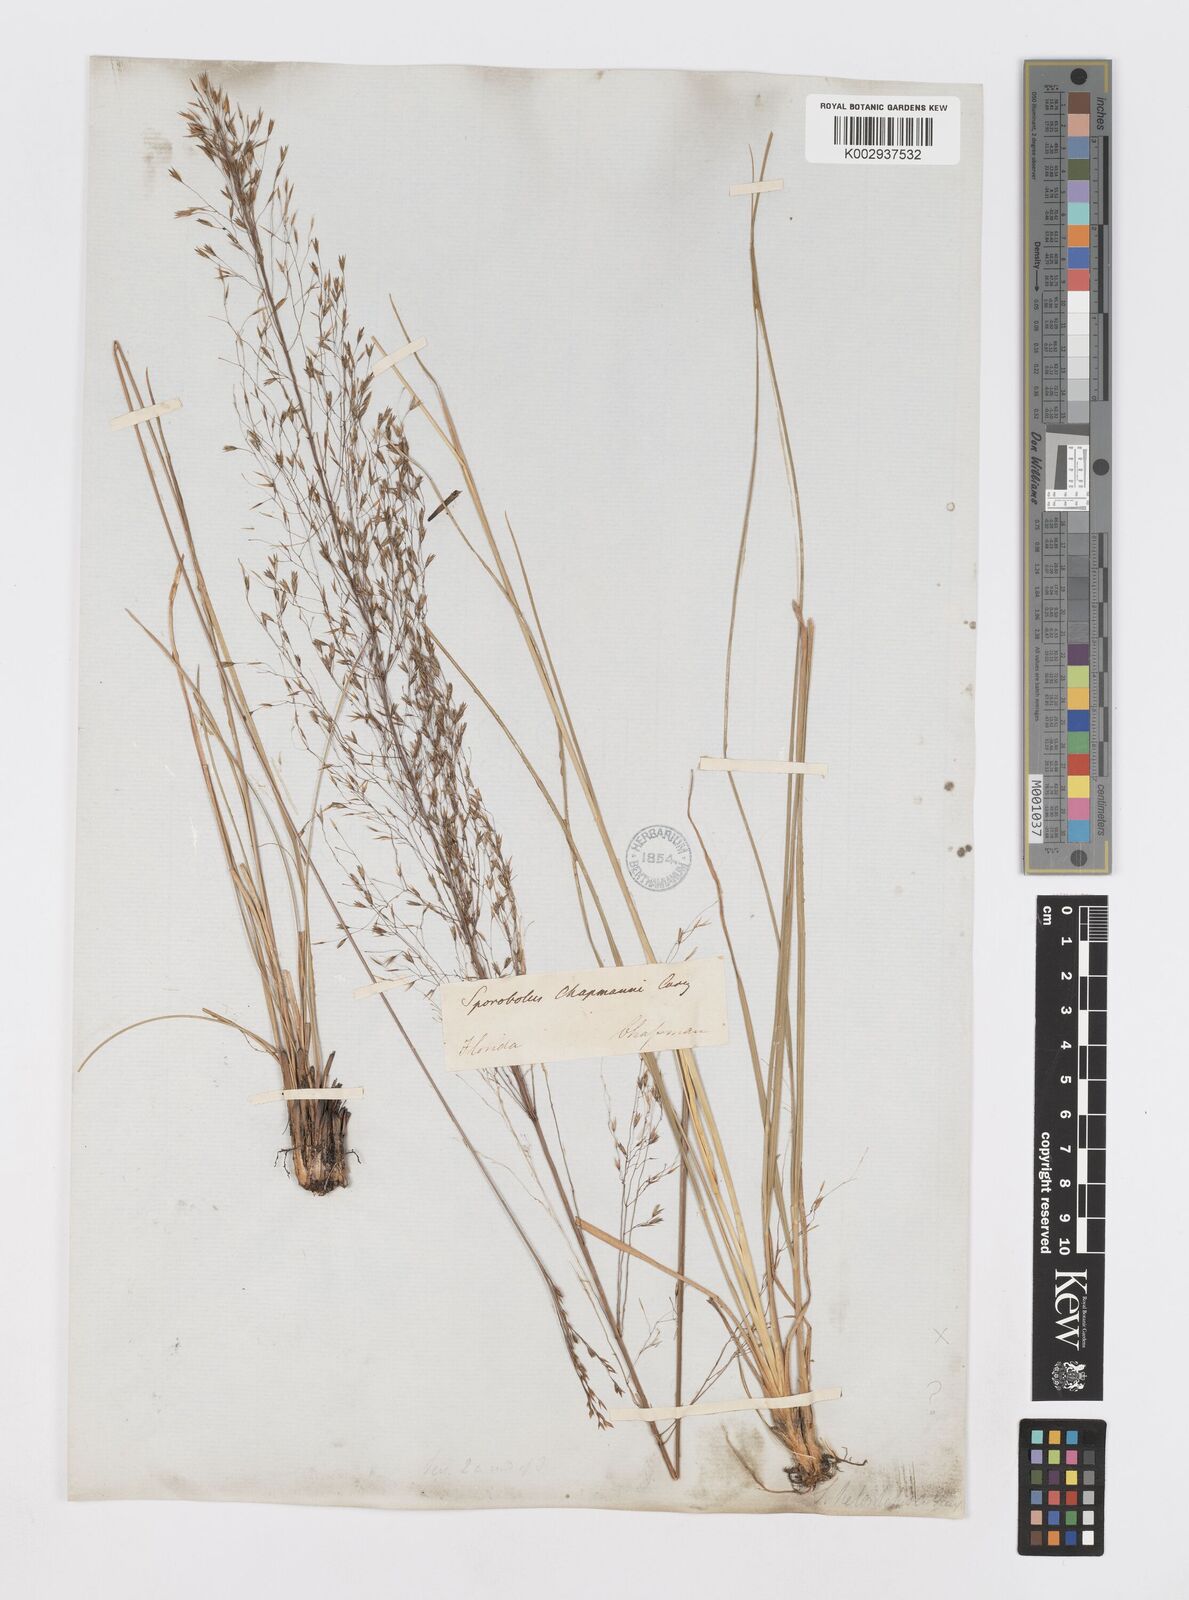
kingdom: Plantae
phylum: Tracheophyta
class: Liliopsida
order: Poales
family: Poaceae
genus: Sporobolus
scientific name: Sporobolus heterolepis
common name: Prairie dropseed
